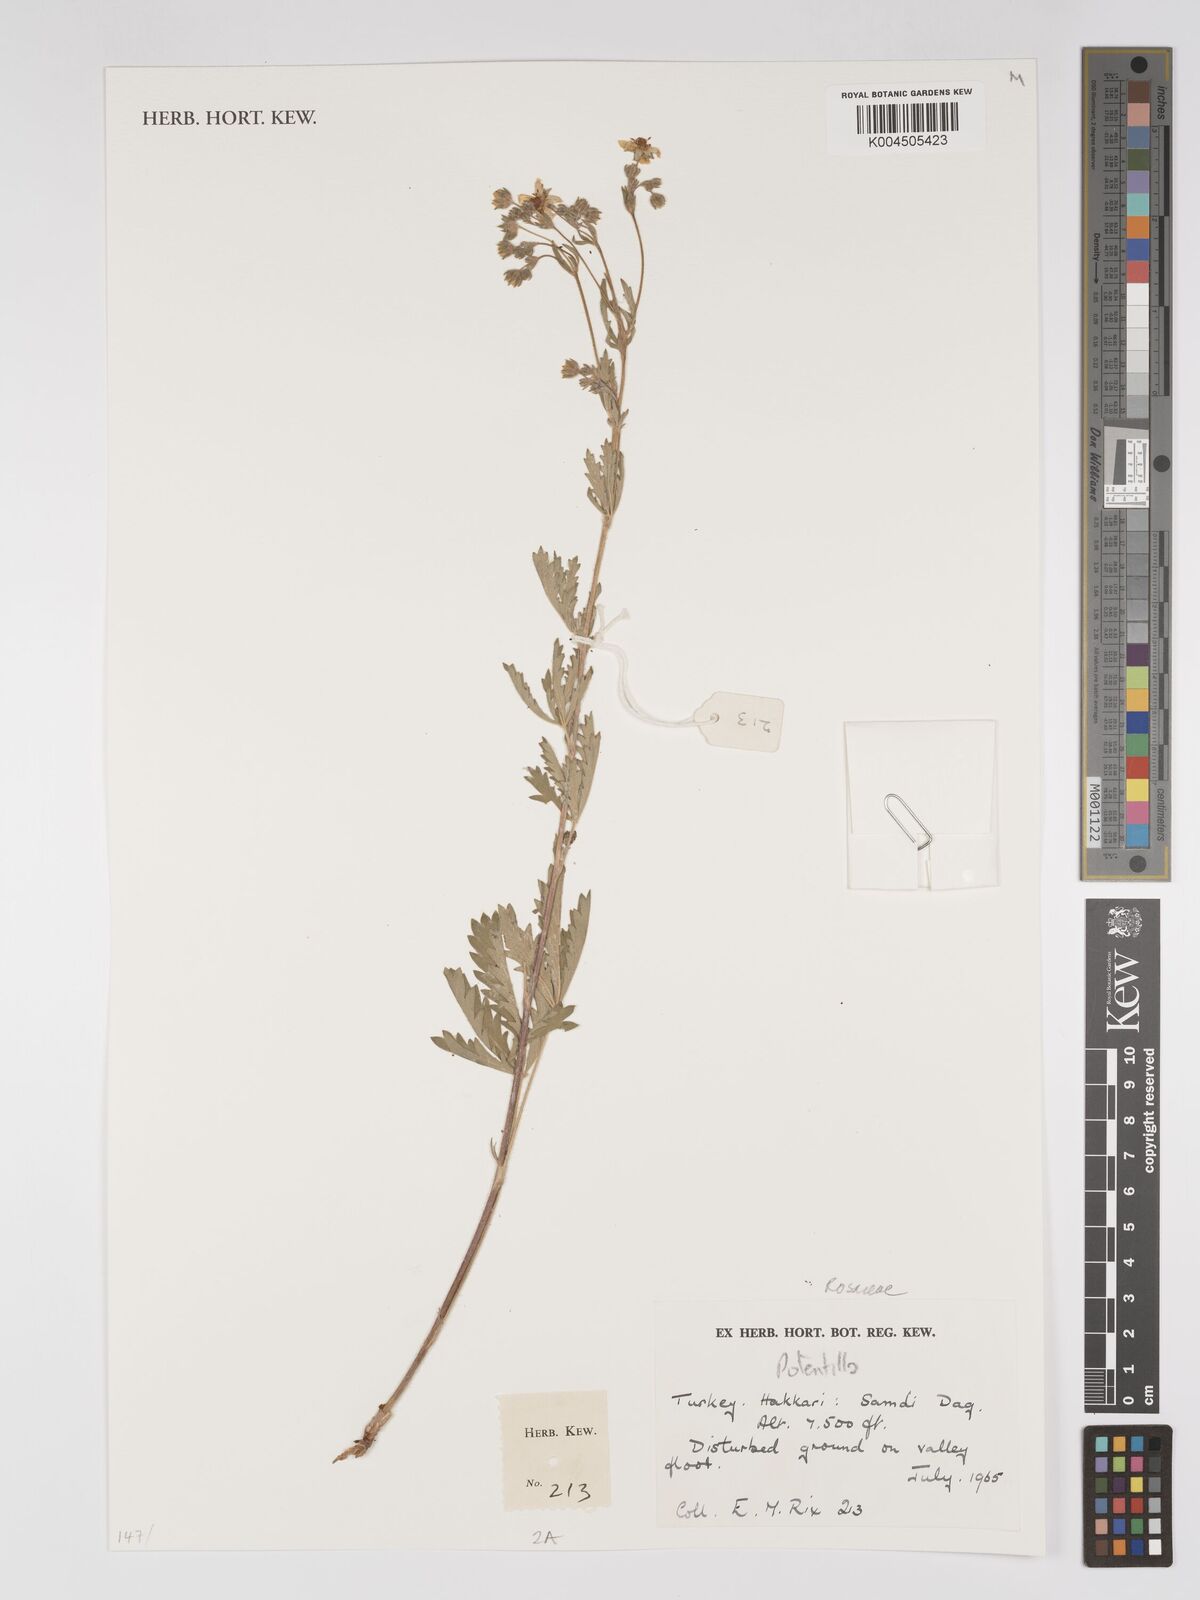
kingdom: Plantae
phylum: Tracheophyta
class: Magnoliopsida
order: Rosales
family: Rosaceae
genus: Potentilla
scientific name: Potentilla
